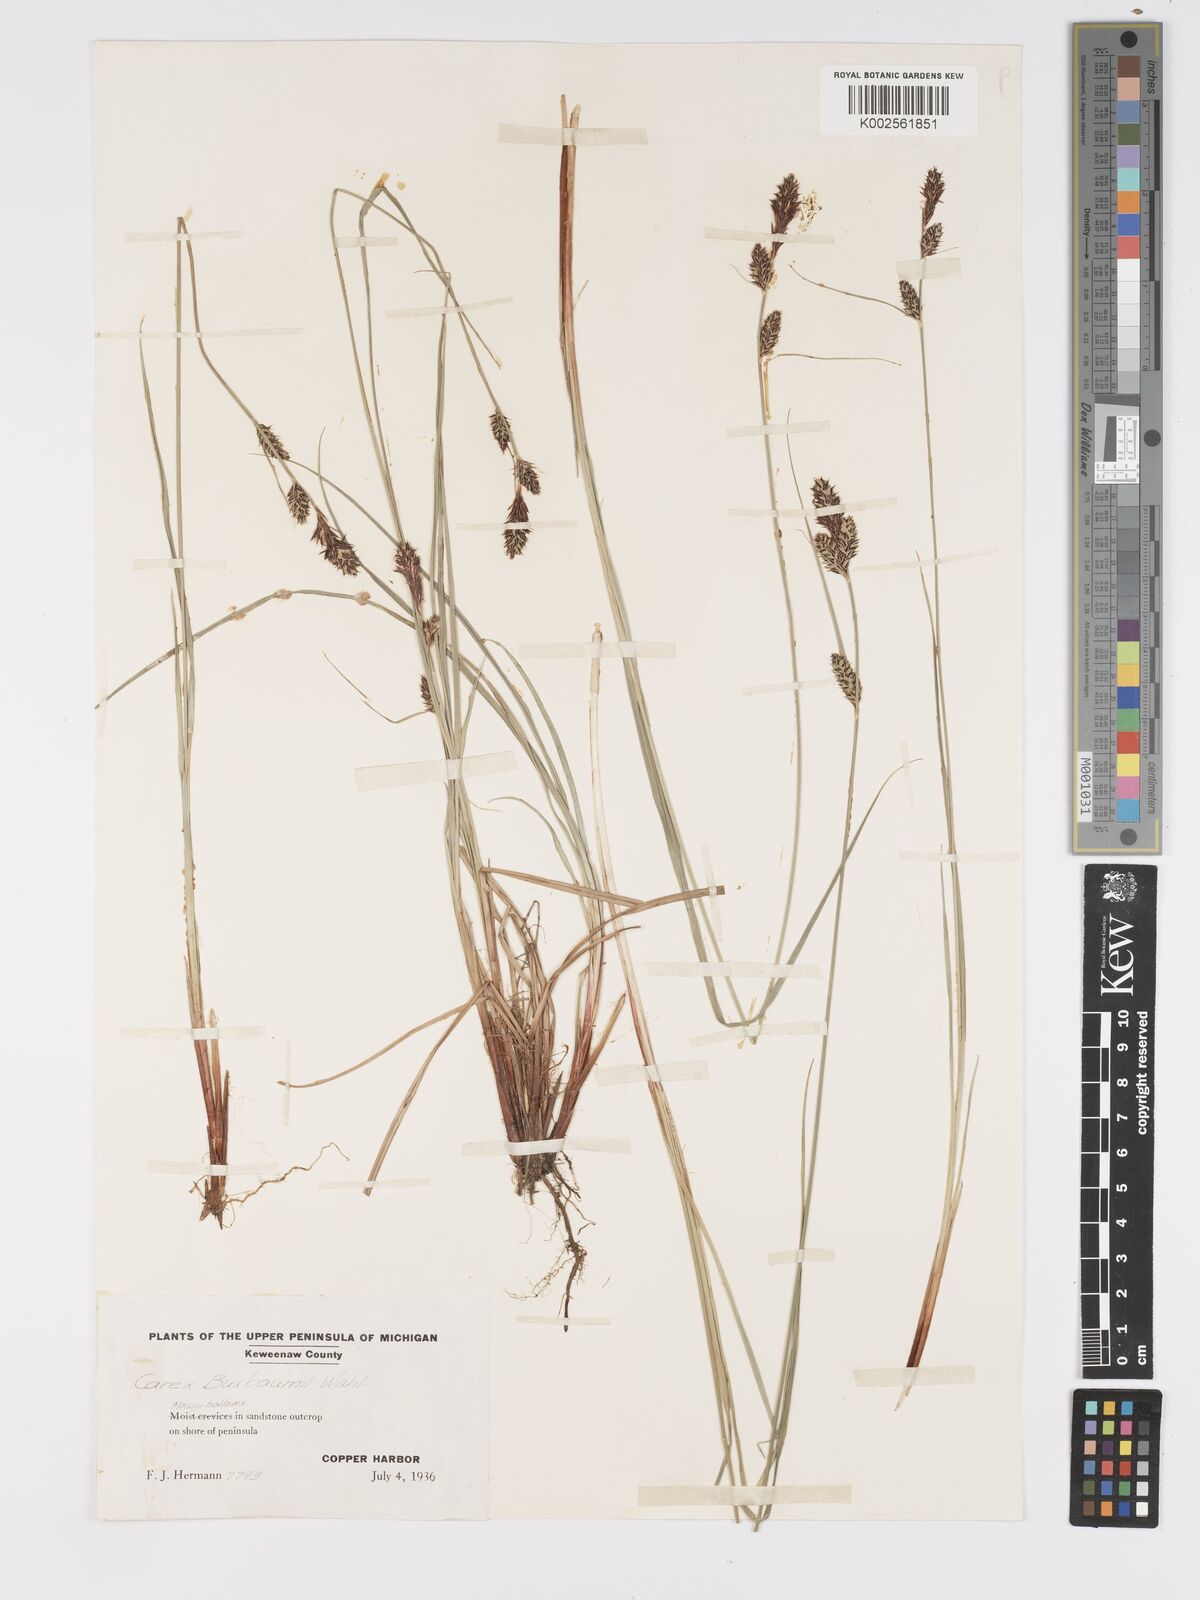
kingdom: Plantae
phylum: Tracheophyta
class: Liliopsida
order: Poales
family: Cyperaceae
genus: Carex
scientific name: Carex buxbaumii
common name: Club sedge
